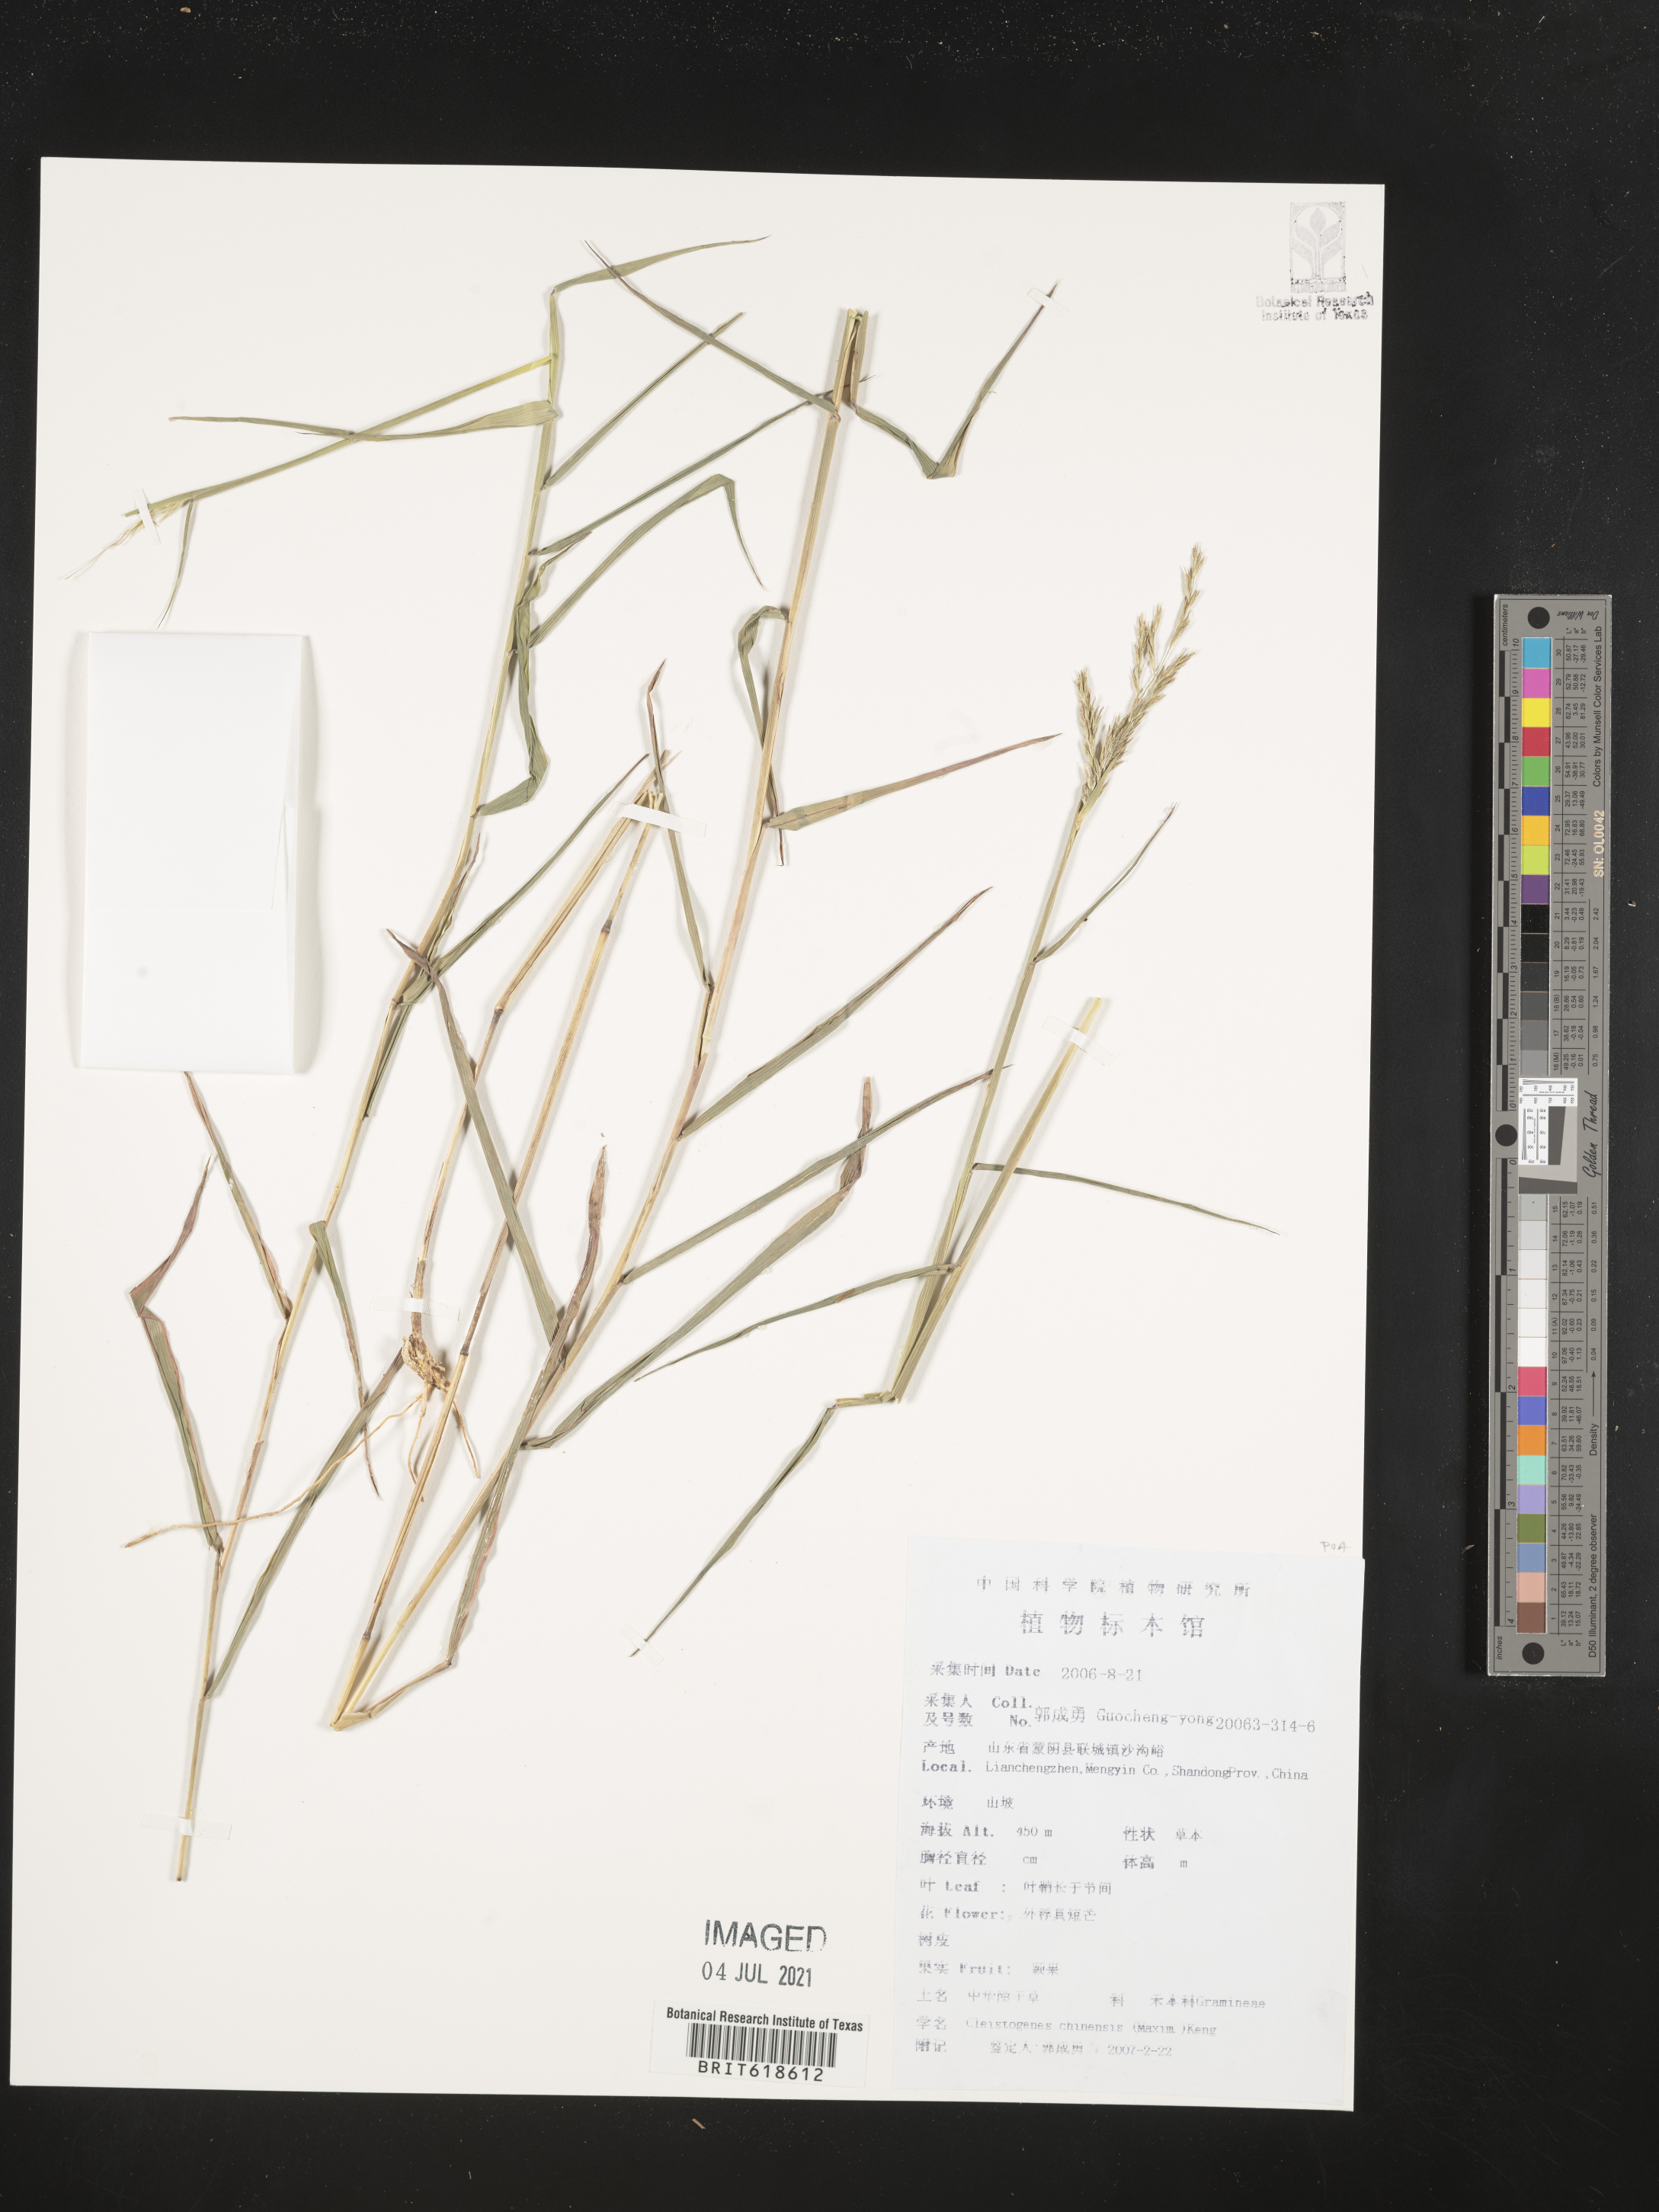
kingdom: Plantae
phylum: Tracheophyta
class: Liliopsida
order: Poales
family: Poaceae
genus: Cleistogenes
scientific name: Cleistogenes hackelii
